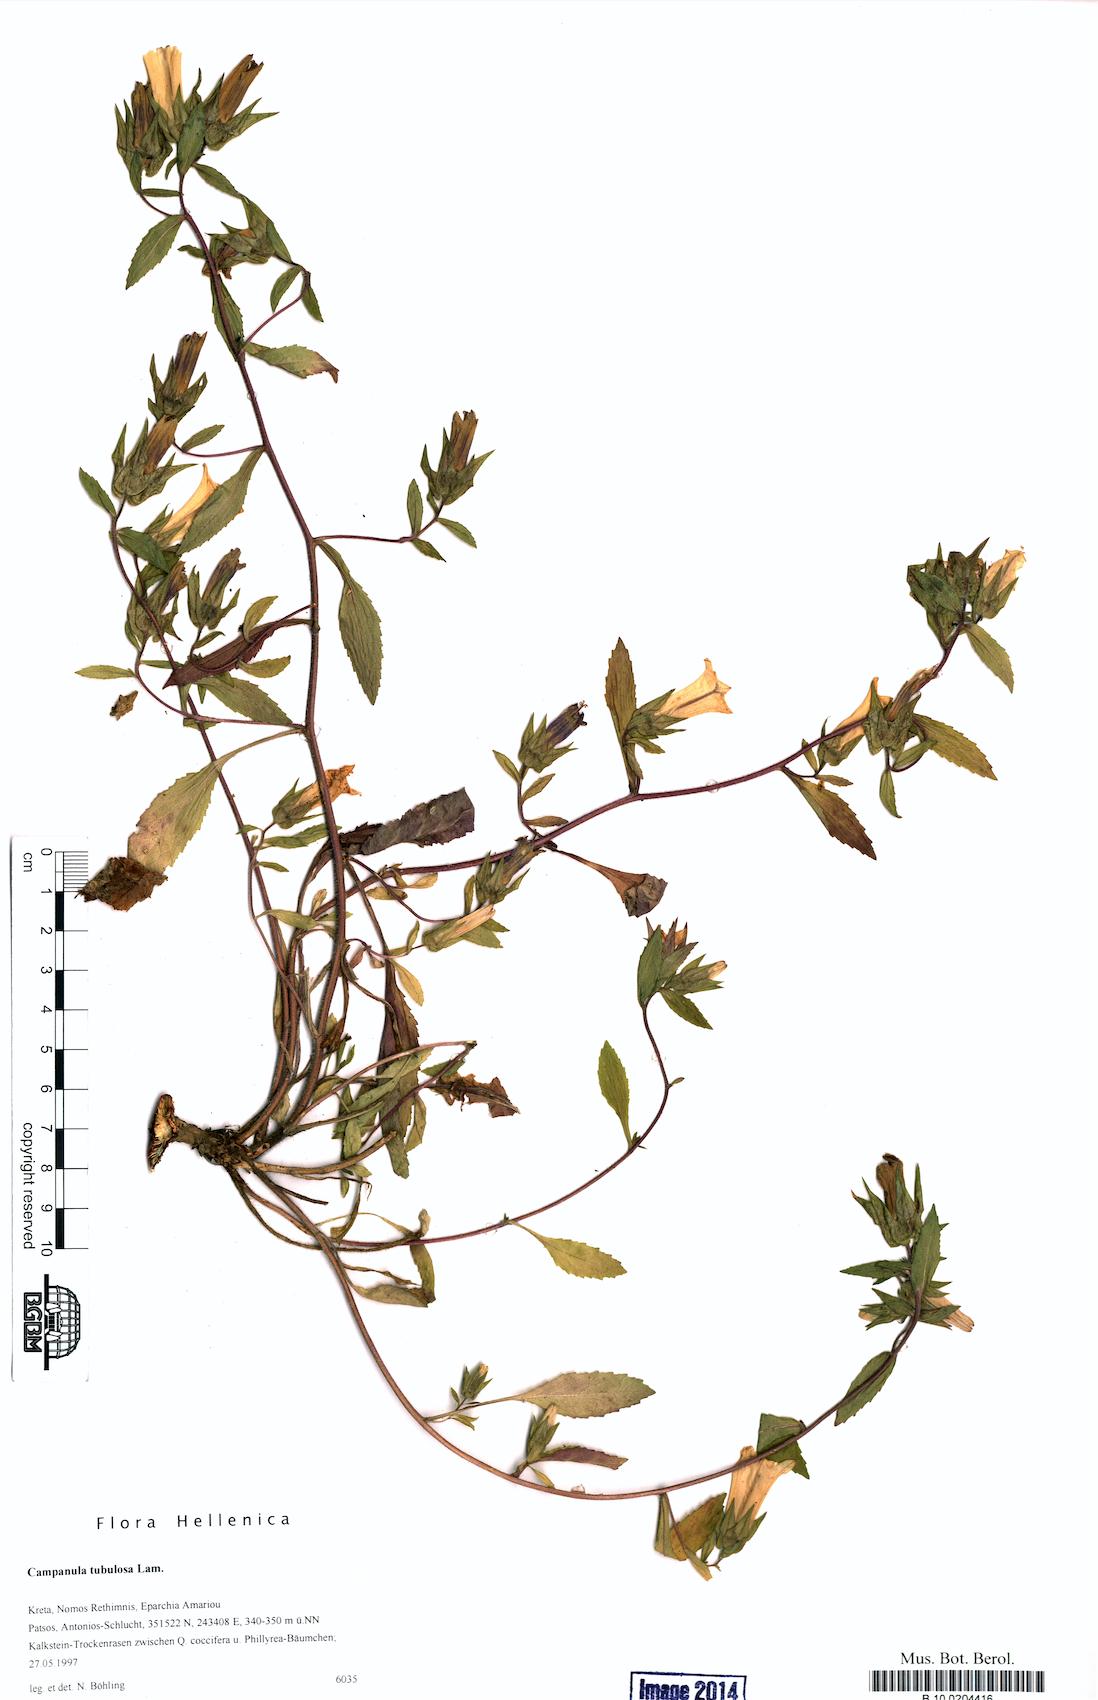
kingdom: Plantae
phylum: Tracheophyta
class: Magnoliopsida
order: Asterales
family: Campanulaceae
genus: Campanula
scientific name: Campanula tubulosa
